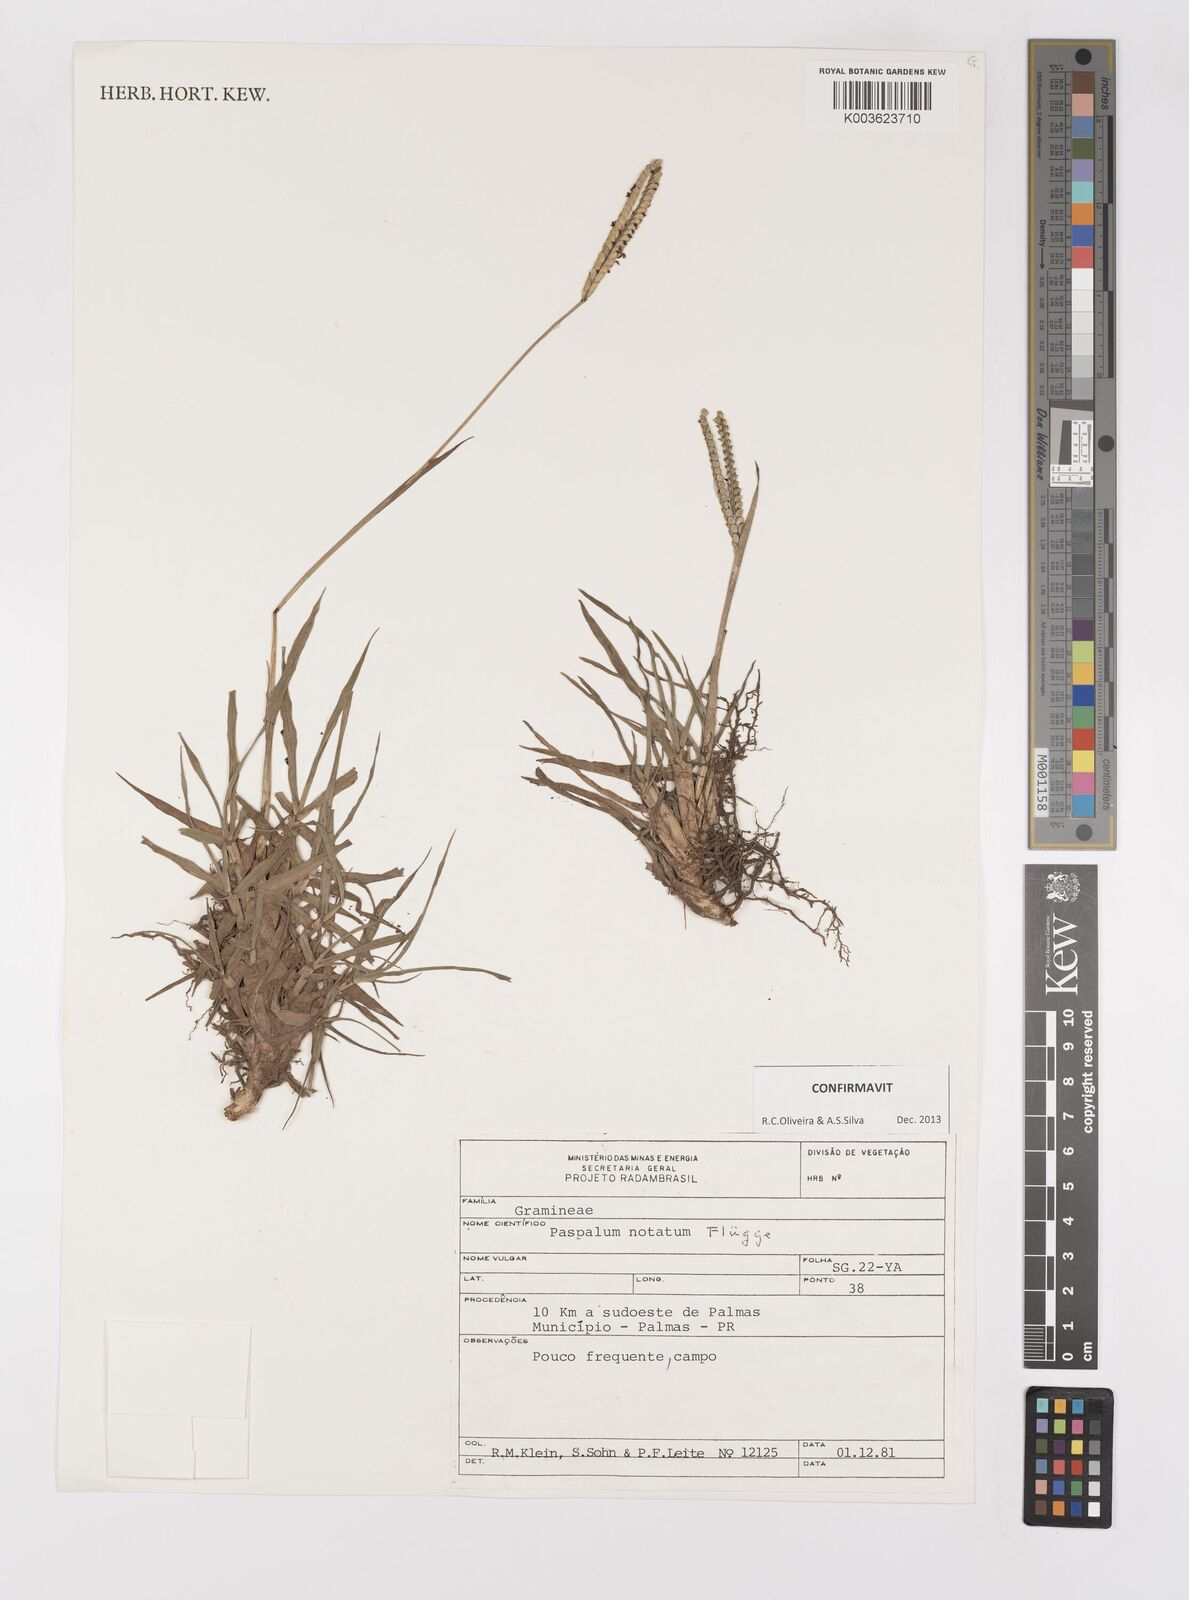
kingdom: Plantae
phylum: Tracheophyta
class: Liliopsida
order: Poales
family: Poaceae
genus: Paspalum
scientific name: Paspalum notatum
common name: Bahiagrass
